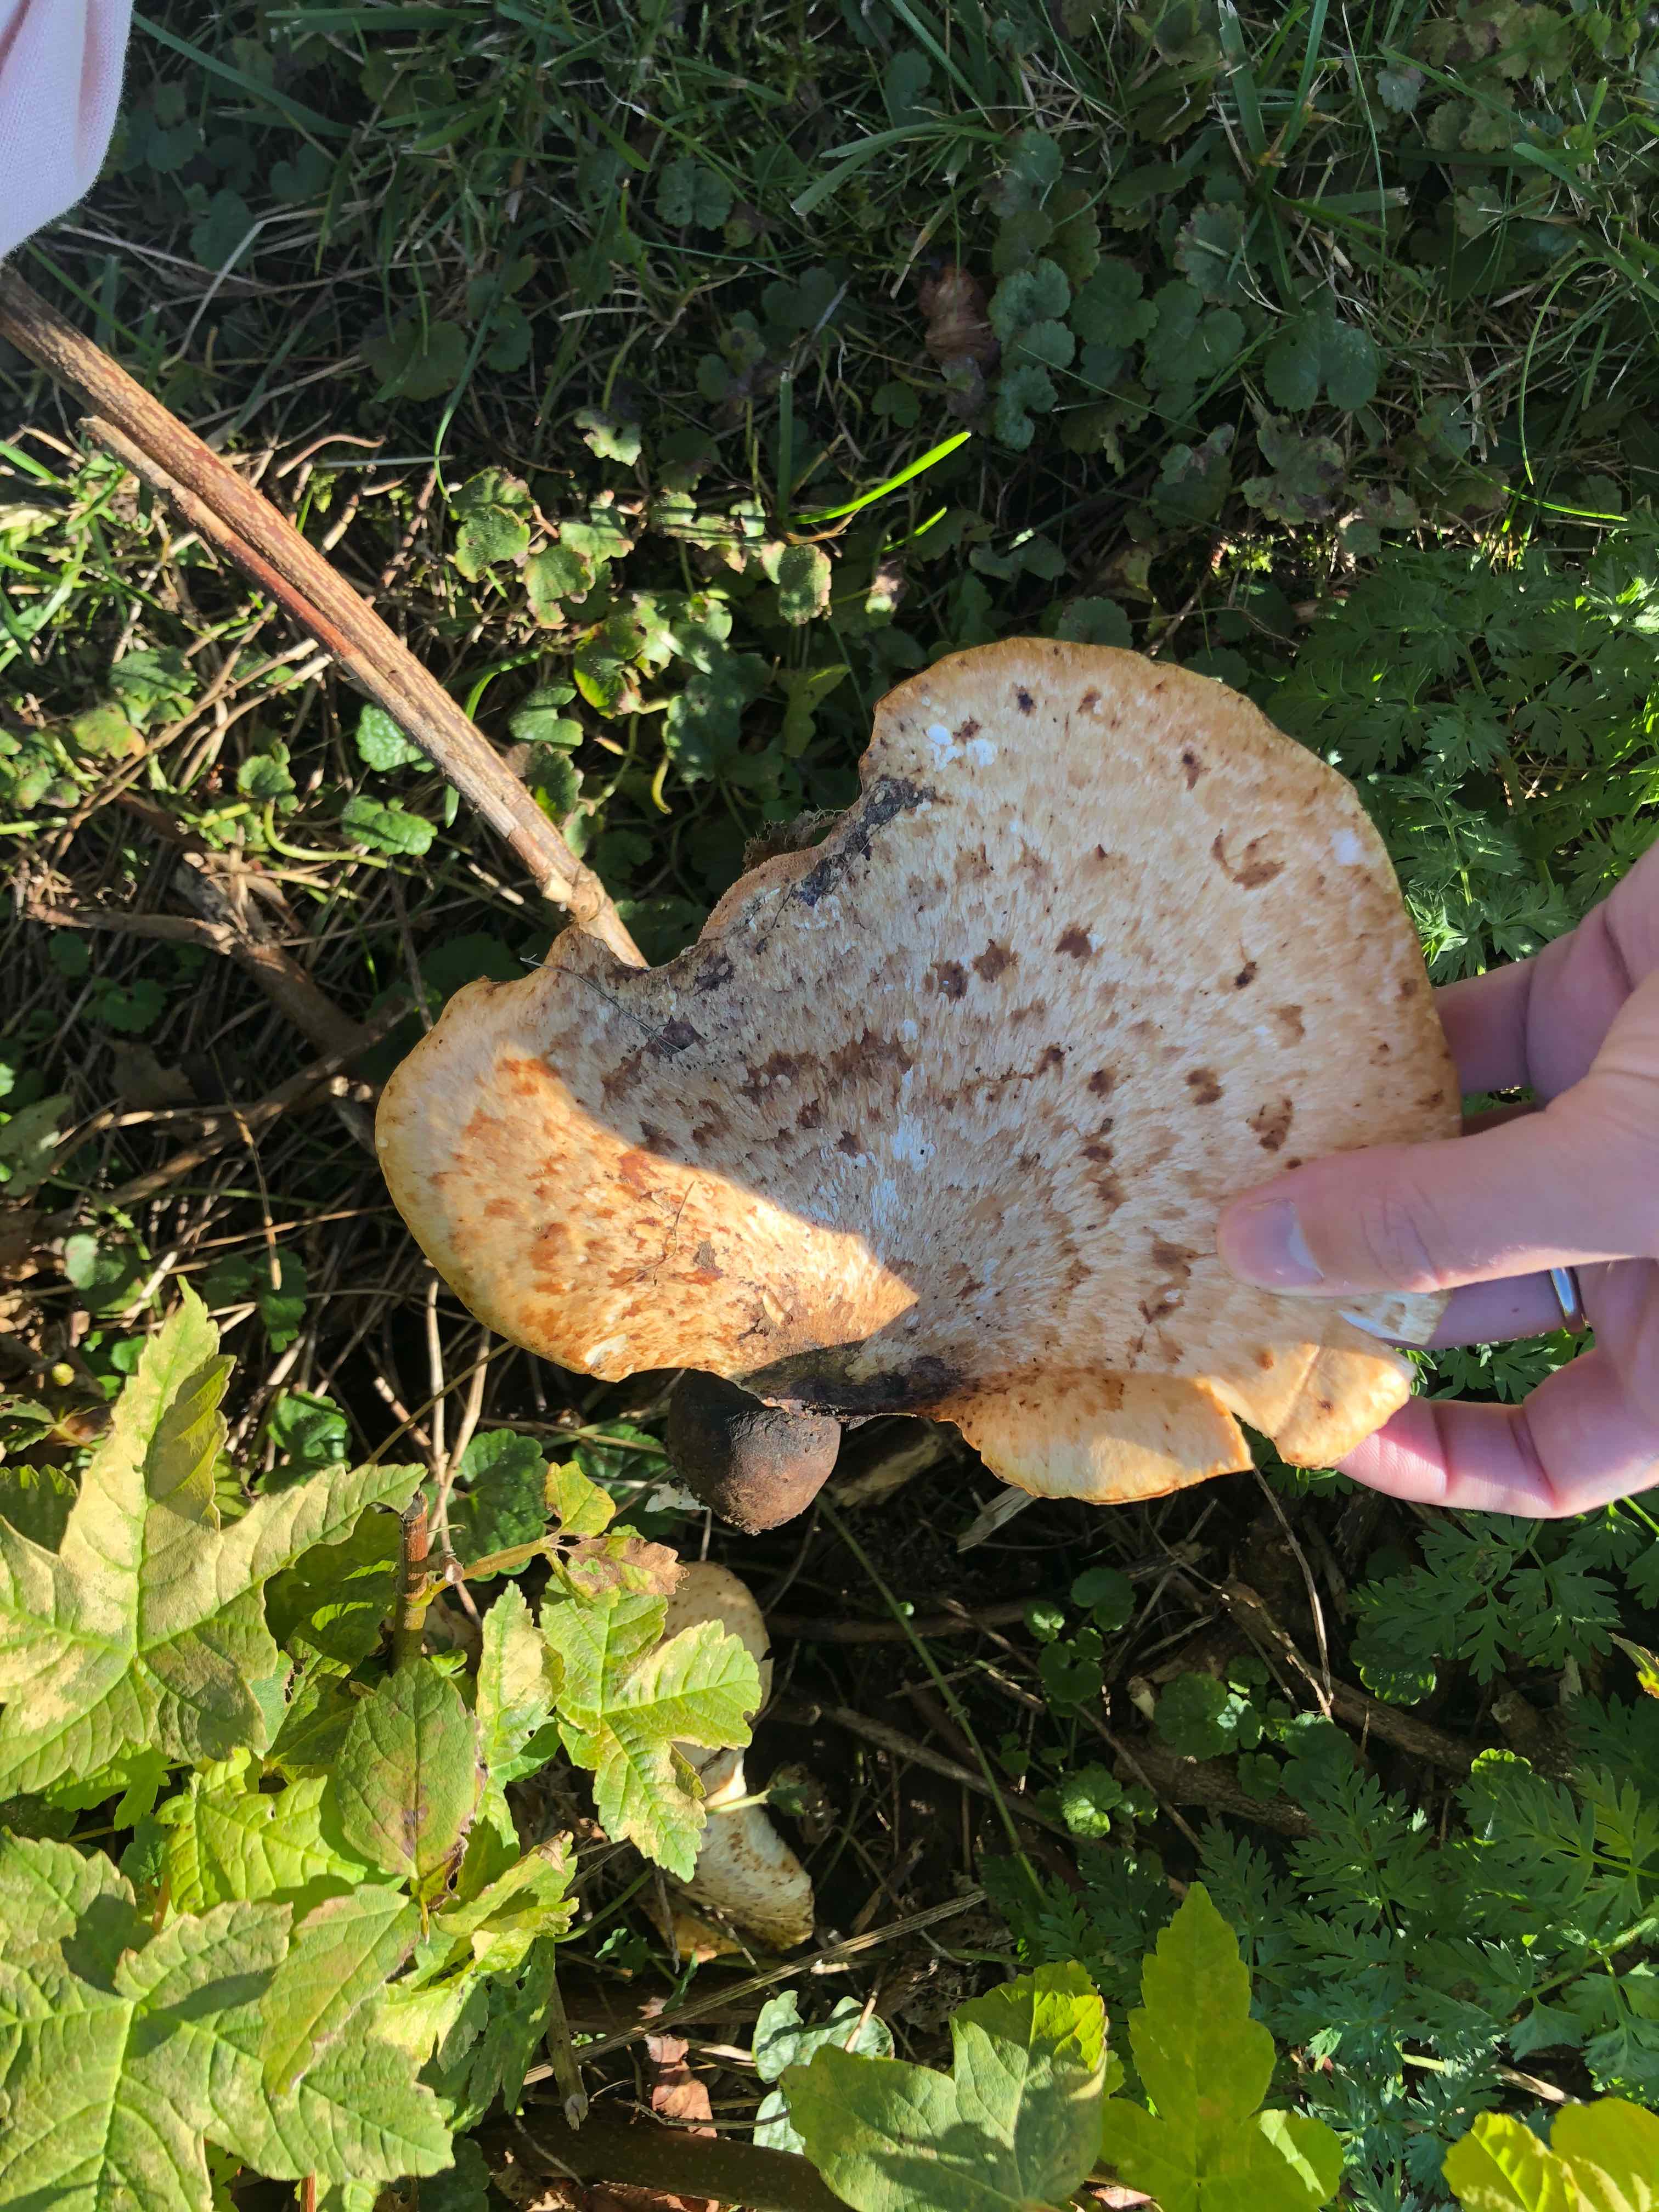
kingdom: Fungi
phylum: Basidiomycota
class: Agaricomycetes
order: Polyporales
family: Polyporaceae
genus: Cerioporus
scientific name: Cerioporus squamosus
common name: skællet stilkporesvamp
